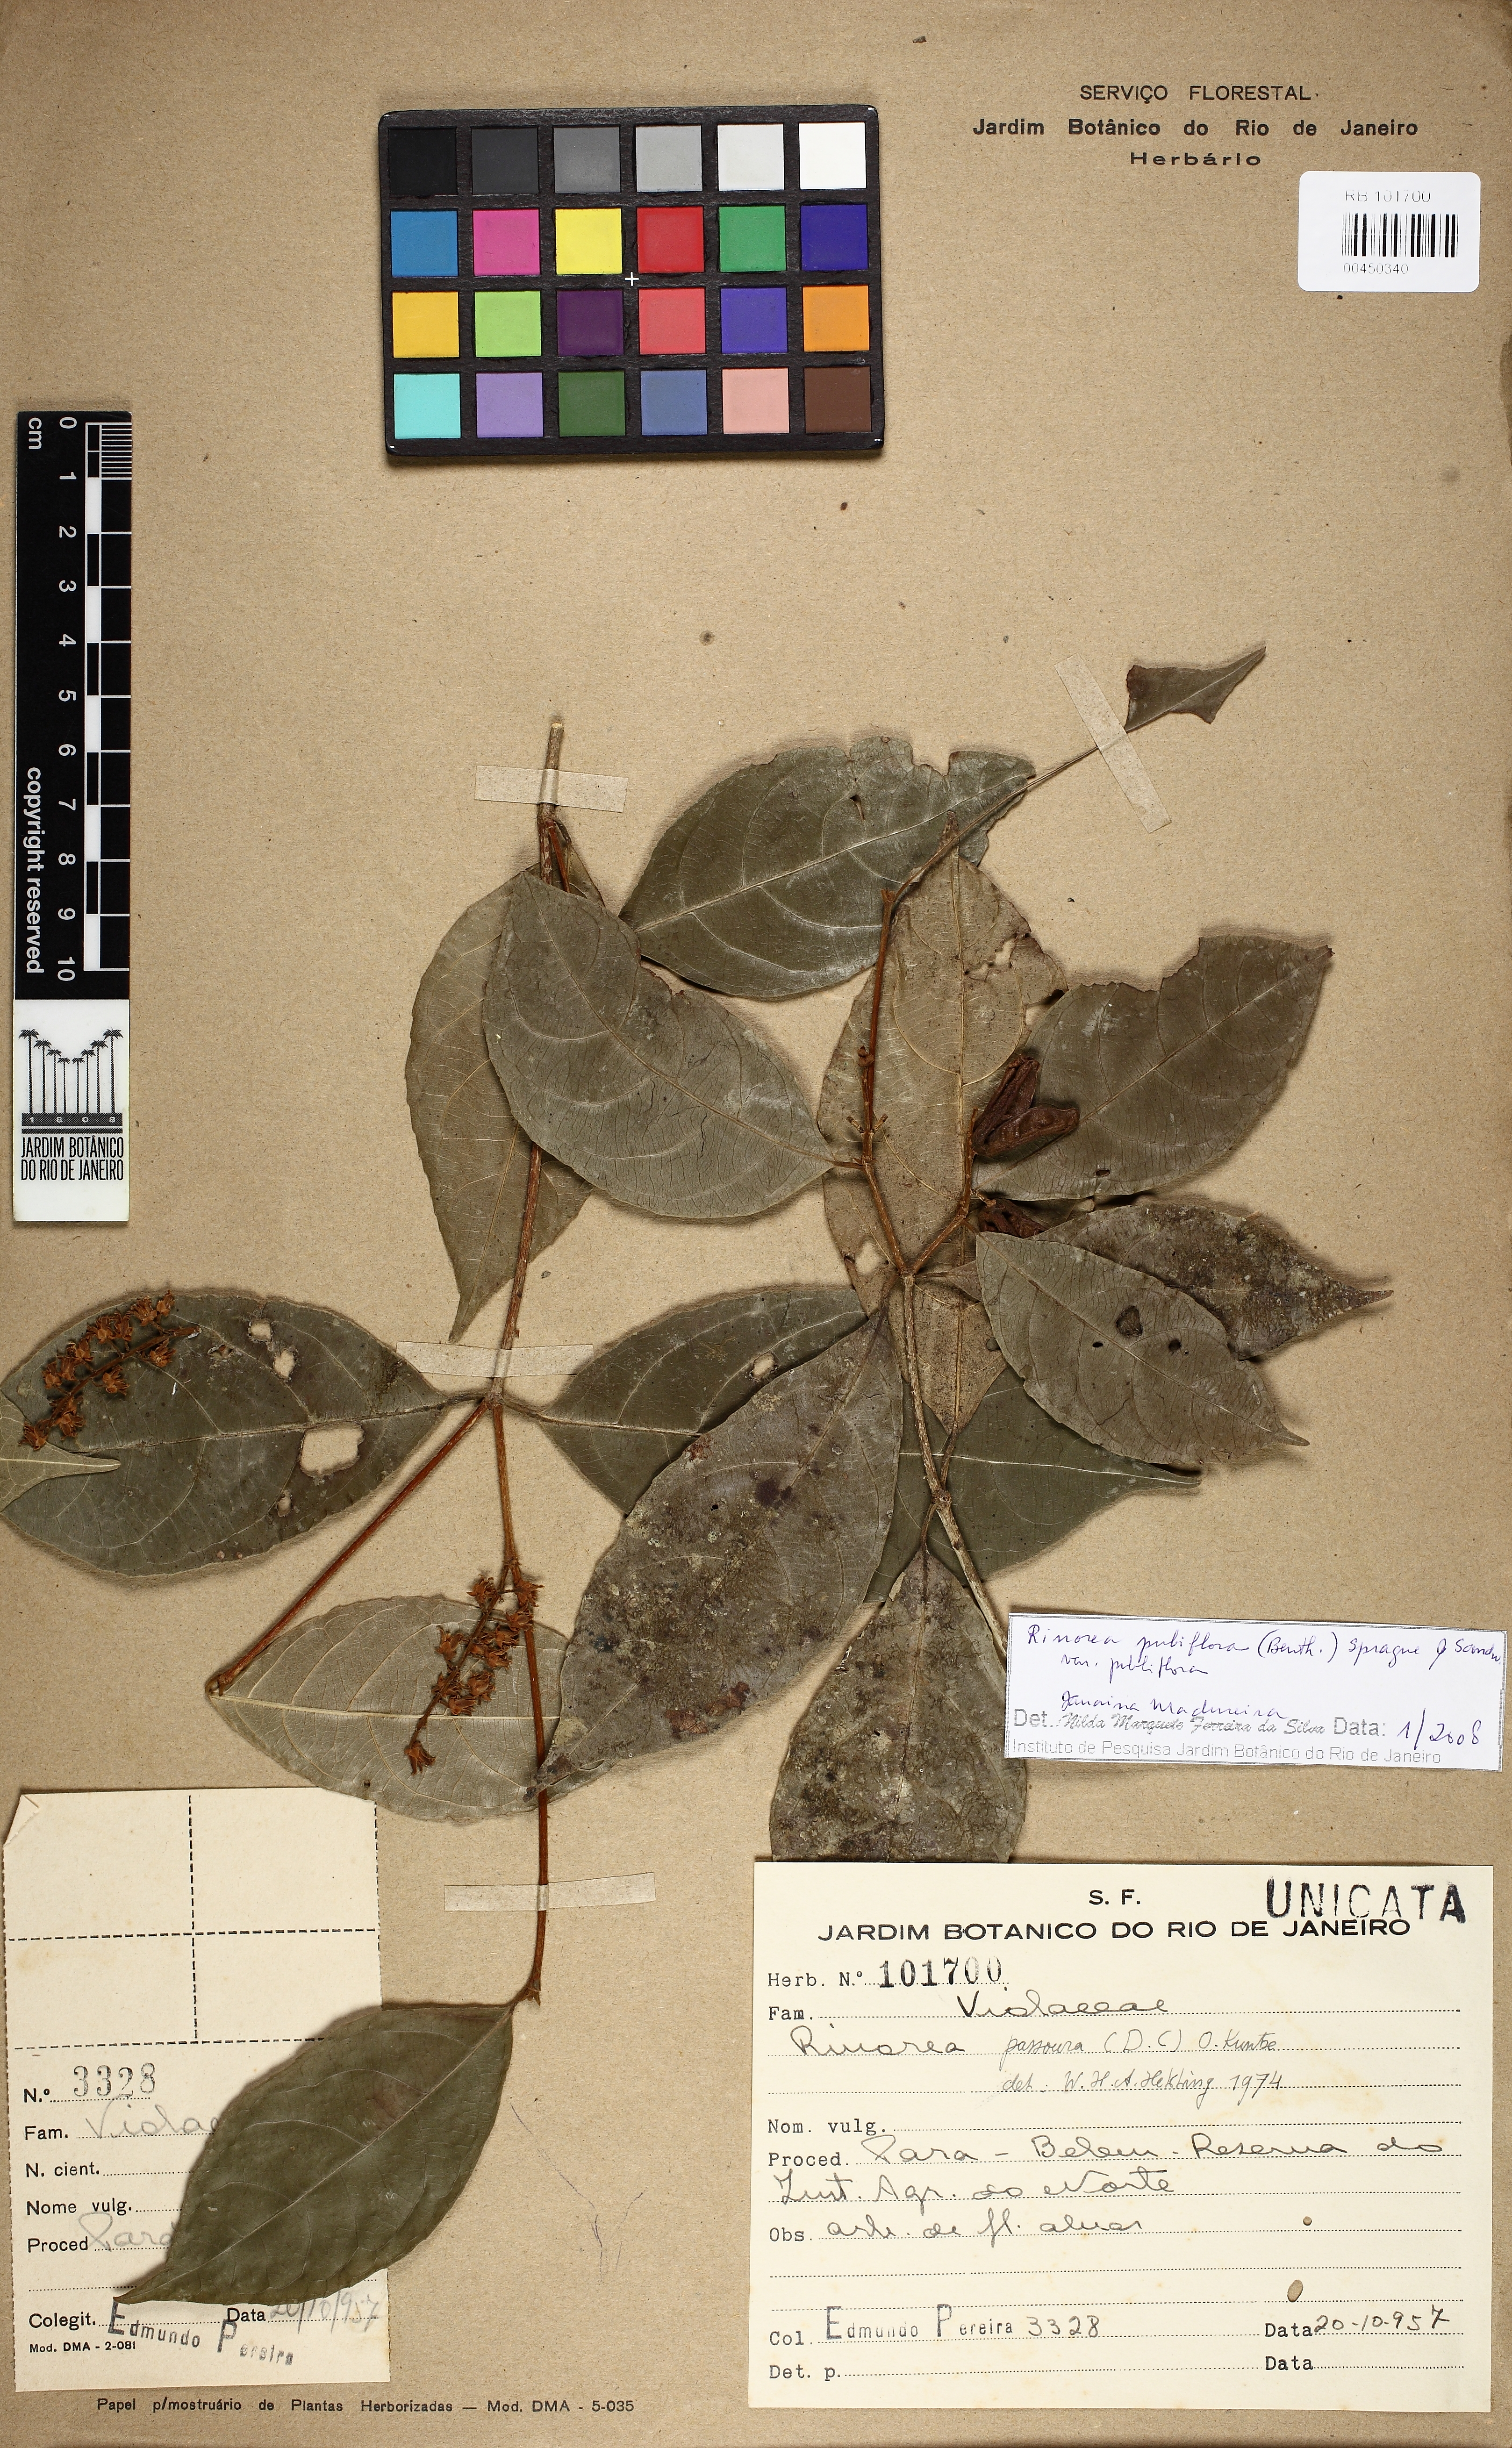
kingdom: Plantae
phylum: Tracheophyta
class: Magnoliopsida
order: Malpighiales
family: Violaceae
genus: Rinorea
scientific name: Rinorea pubiflora
